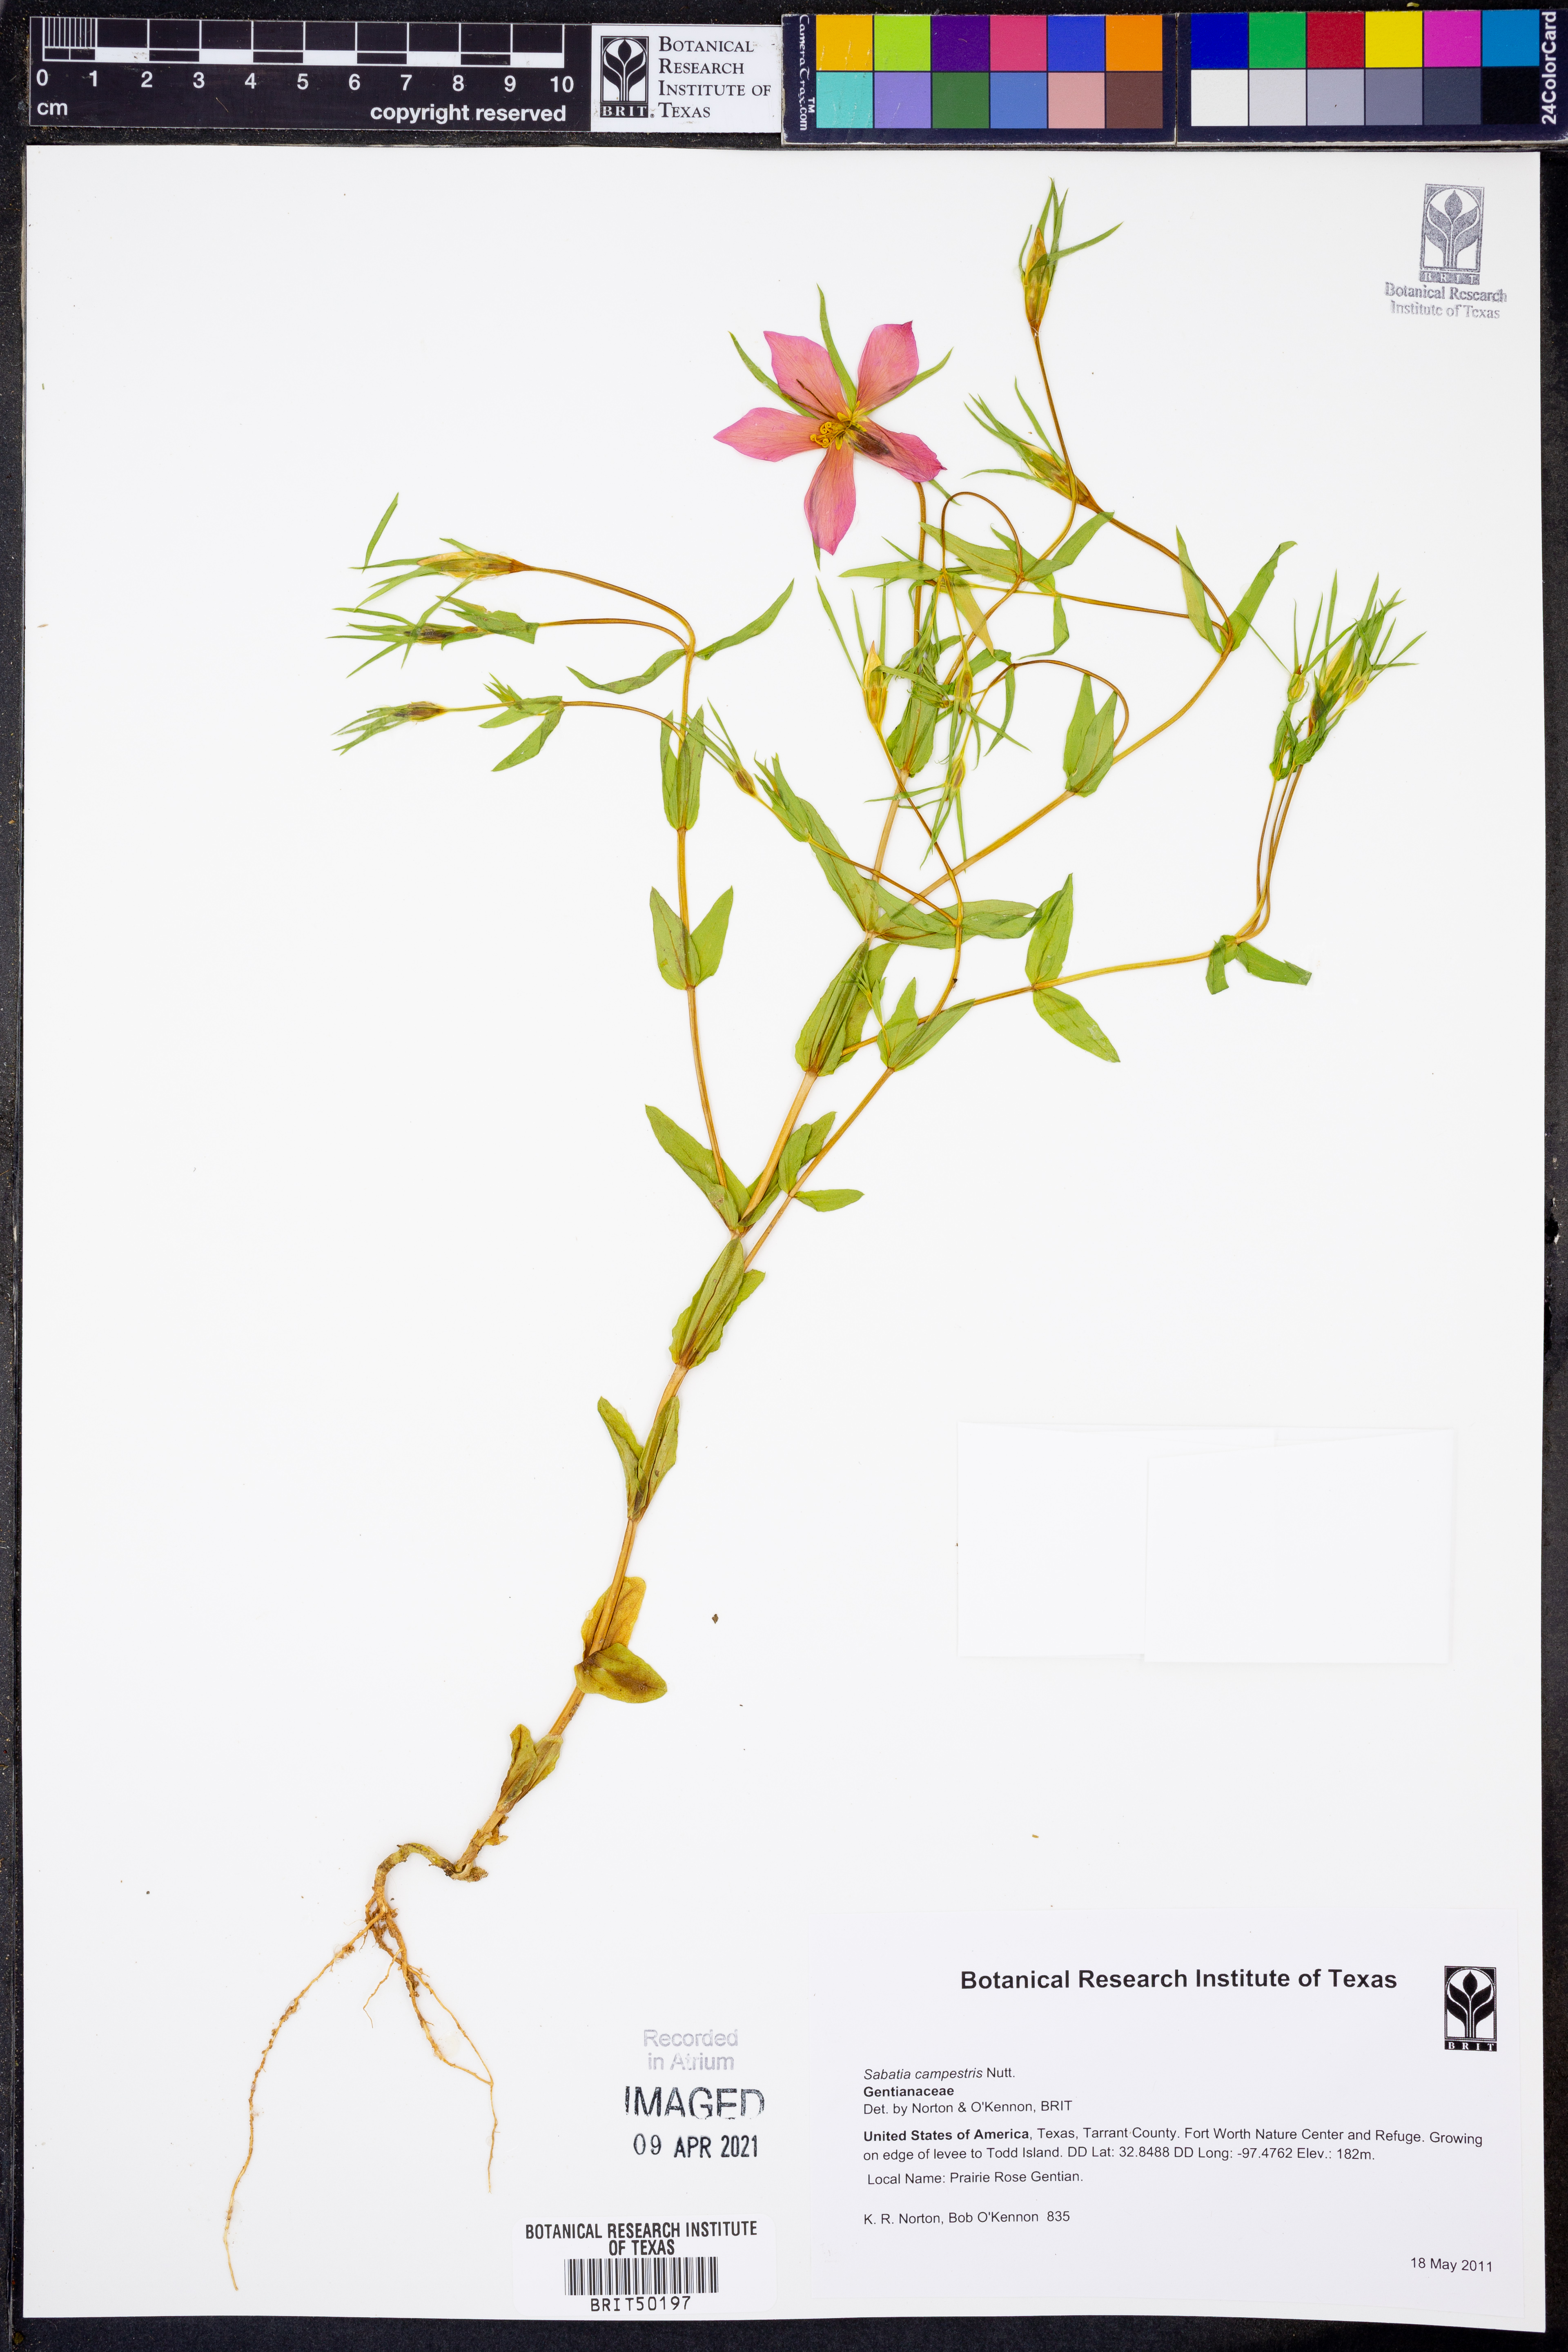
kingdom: Plantae
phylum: Tracheophyta
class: Magnoliopsida
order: Gentianales
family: Gentianaceae
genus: Sabatia
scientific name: Sabatia campestris
